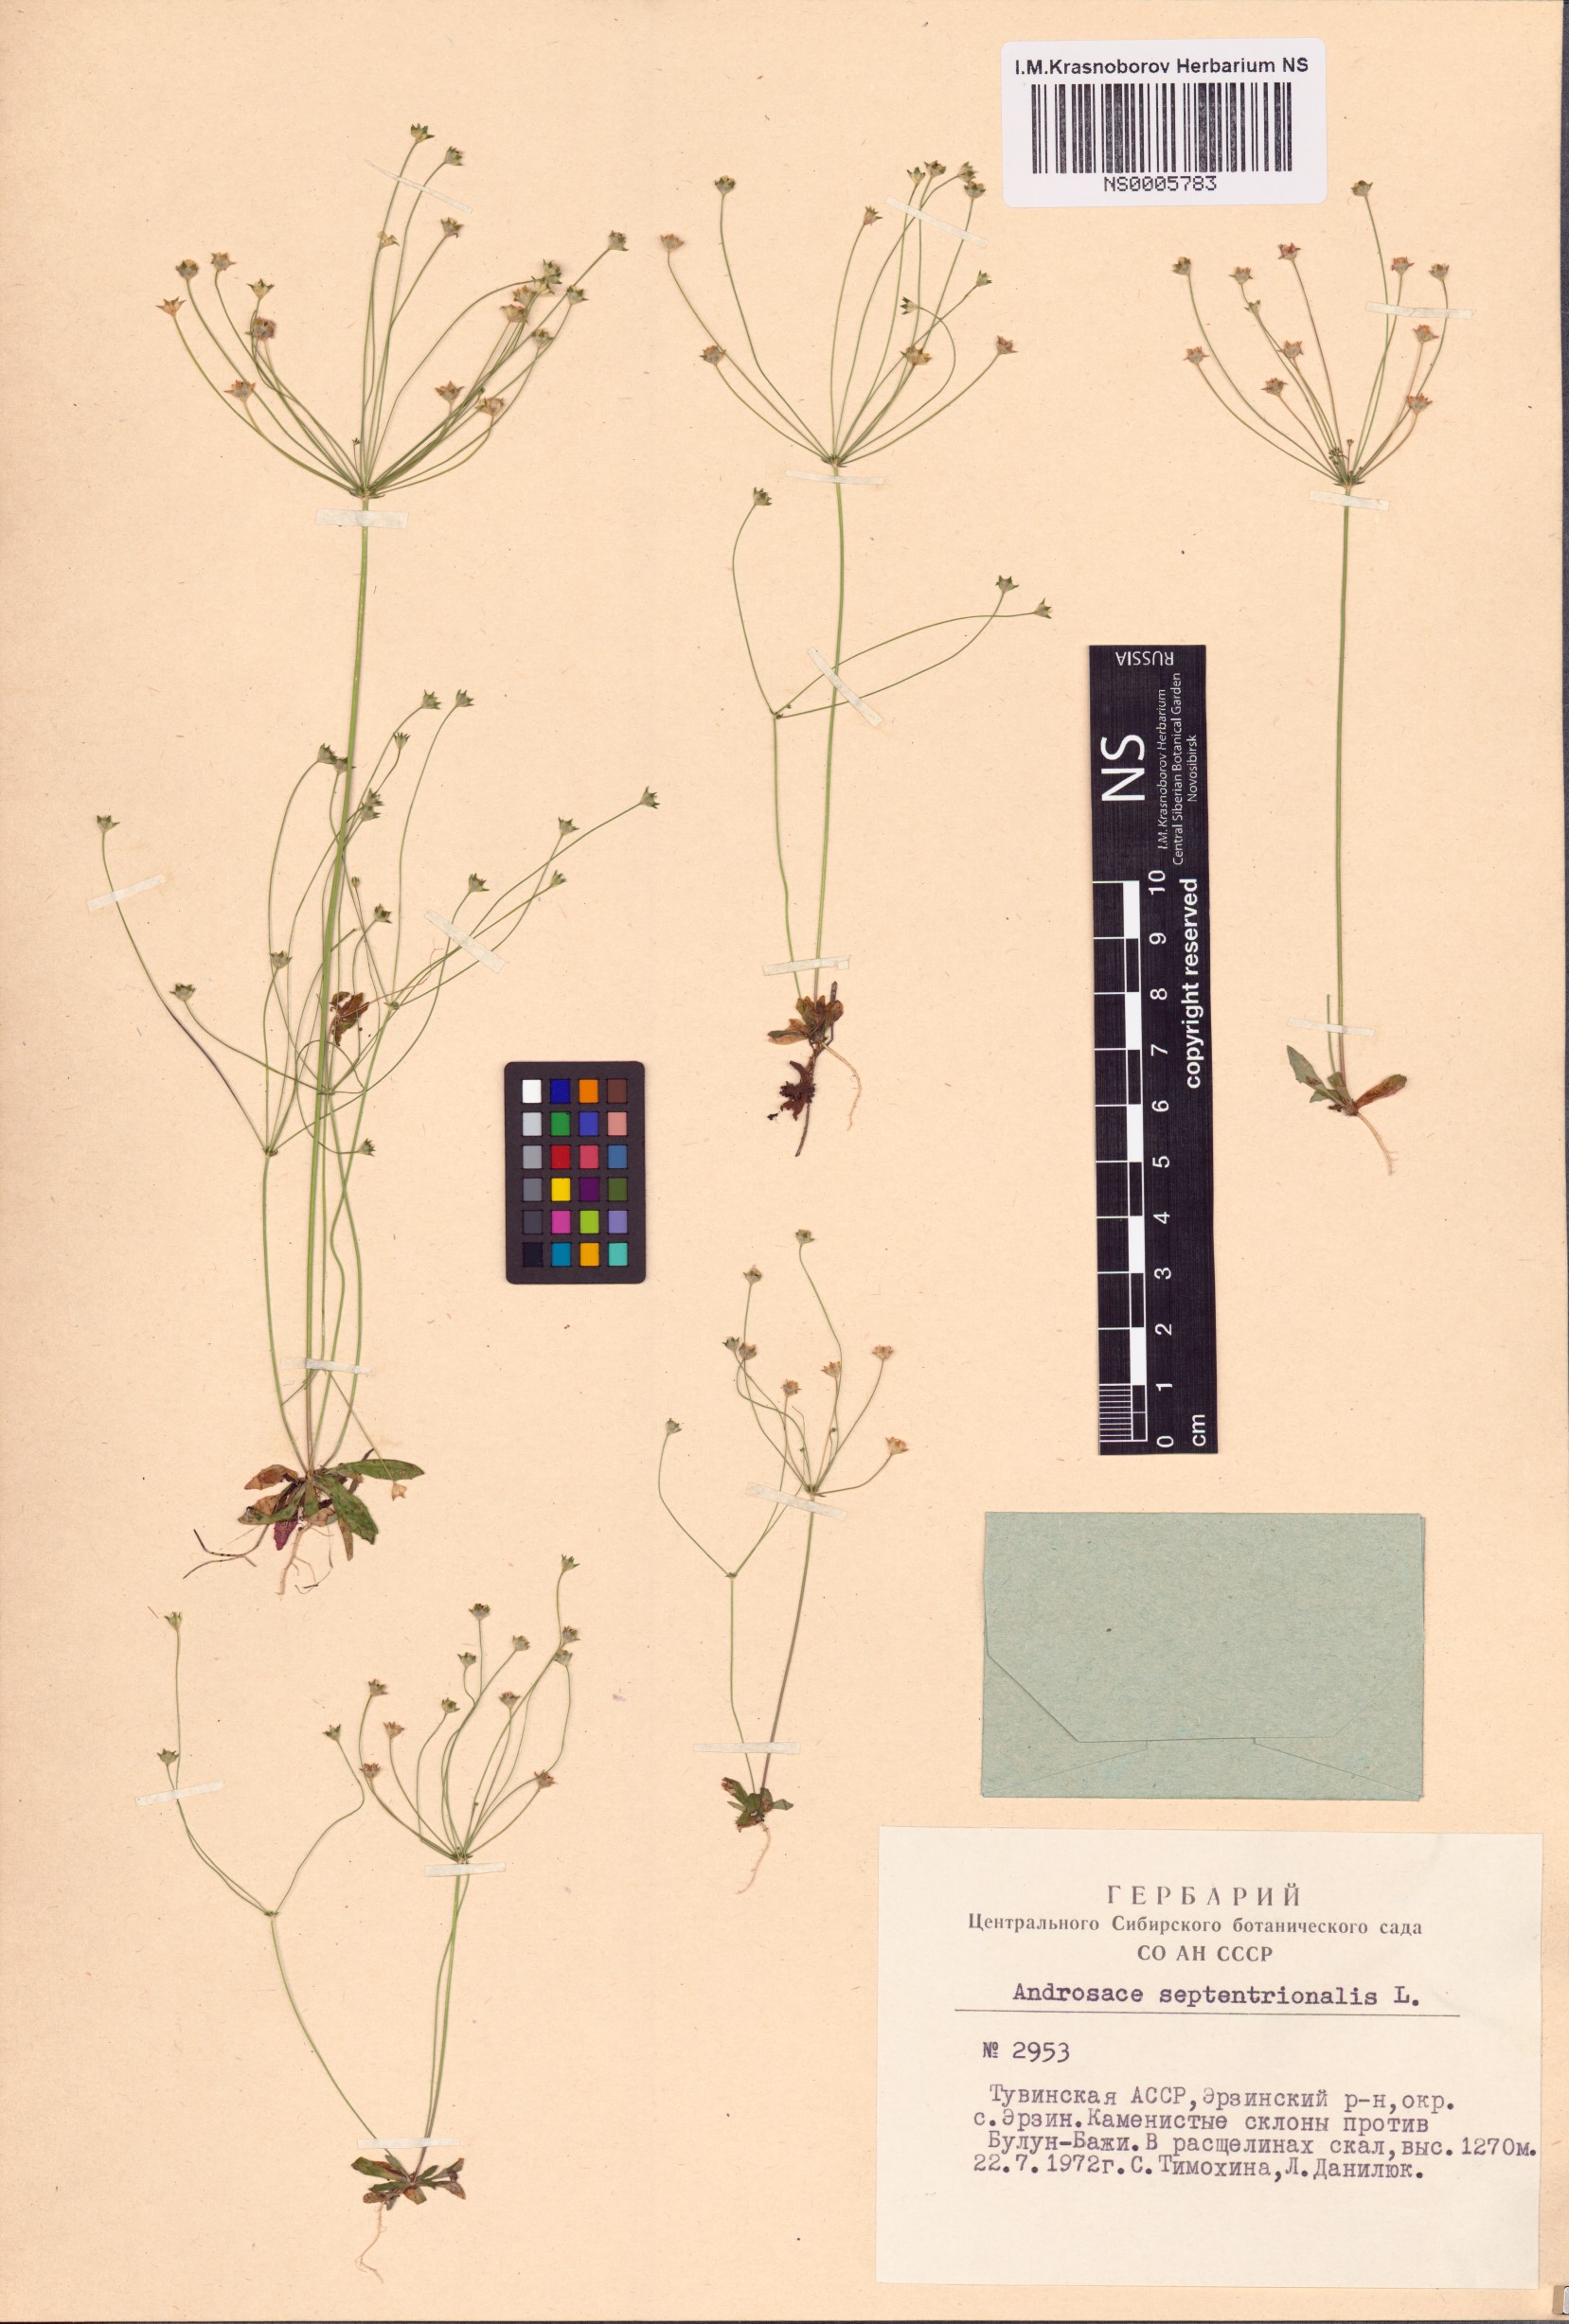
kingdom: Plantae
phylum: Tracheophyta
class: Magnoliopsida
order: Ericales
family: Primulaceae
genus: Androsace
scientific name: Androsace septentrionalis
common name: Hairy northern fairy-candelabra
